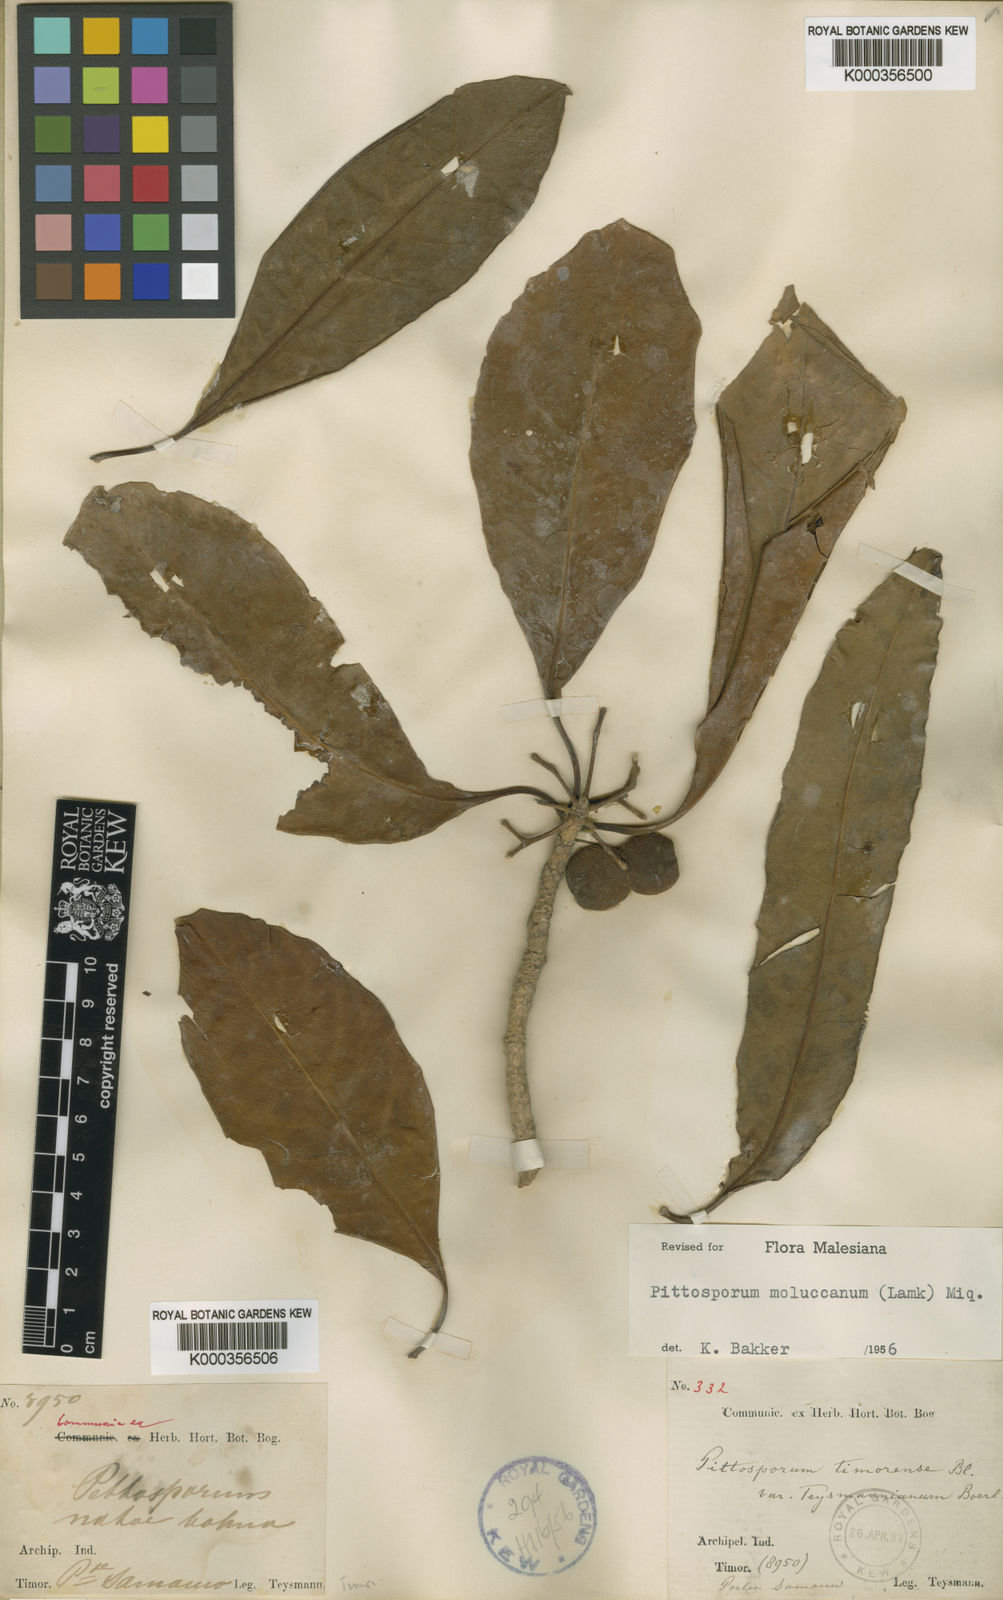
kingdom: Plantae
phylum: Tracheophyta
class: Magnoliopsida
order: Apiales
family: Pittosporaceae
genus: Pittosporum
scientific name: Pittosporum moluccanum
